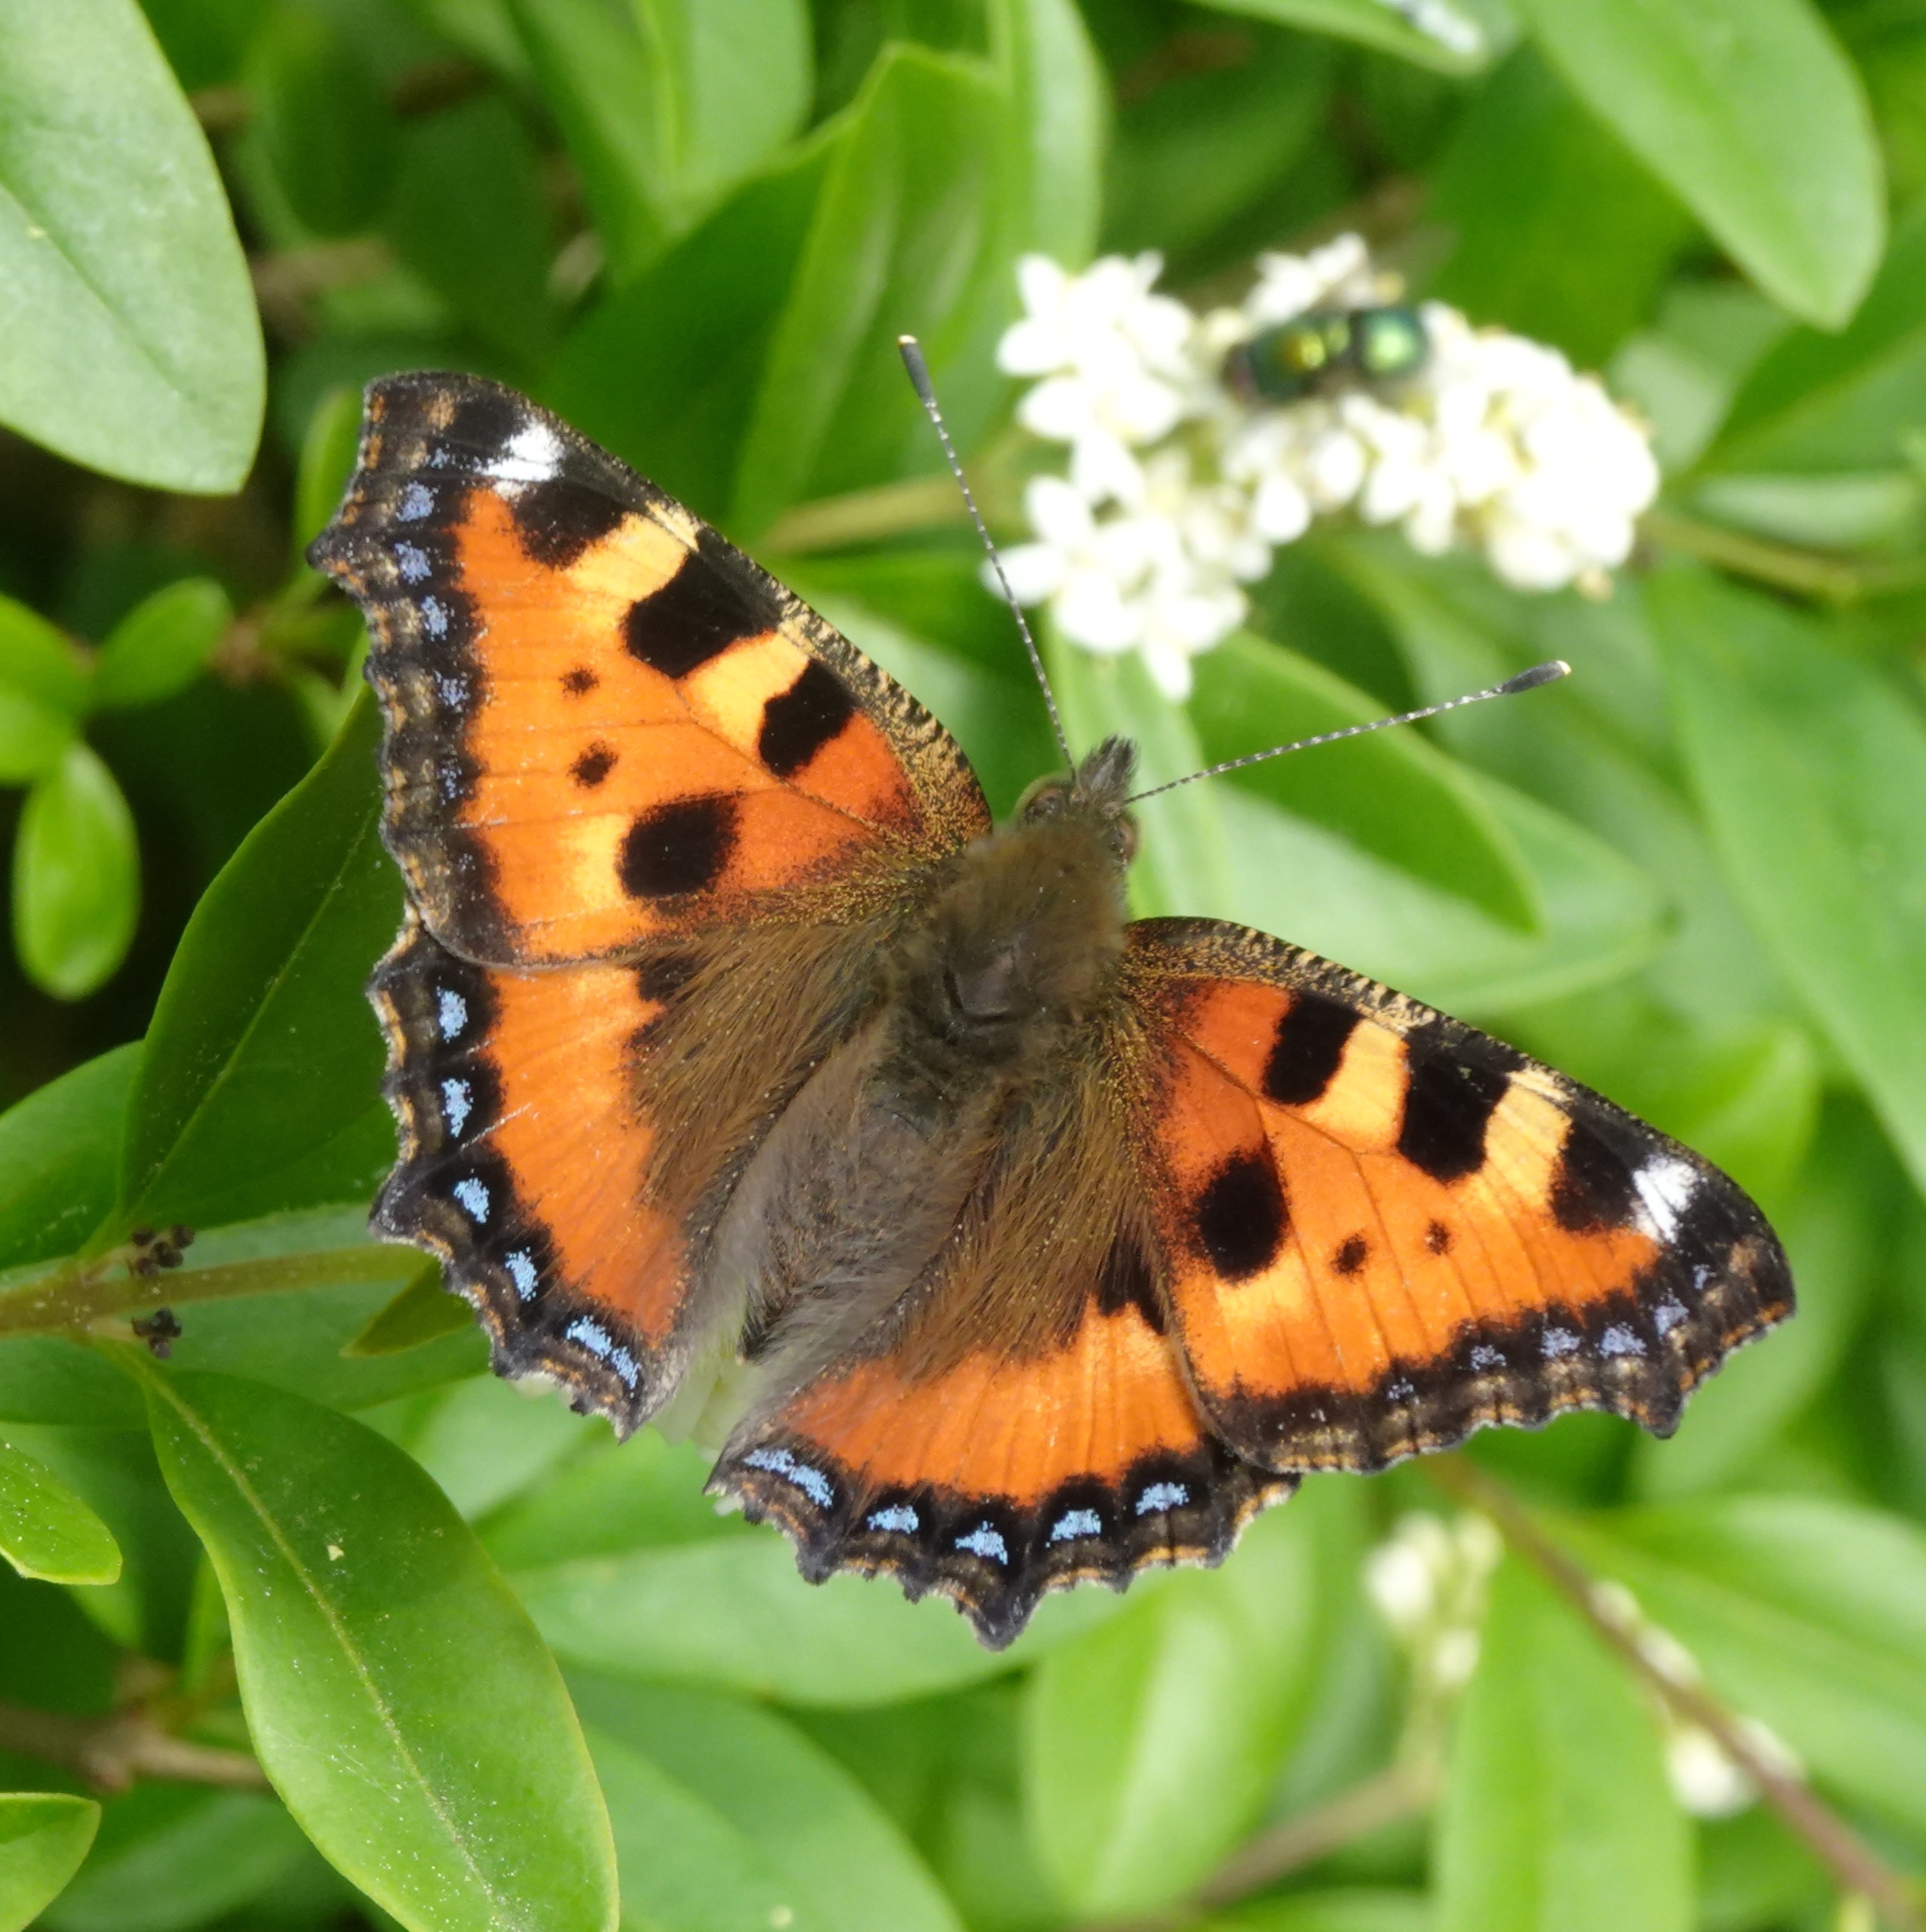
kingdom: Animalia
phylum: Arthropoda
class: Insecta
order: Lepidoptera
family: Nymphalidae
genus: Aglais
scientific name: Aglais urticae
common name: Nældens takvinge
